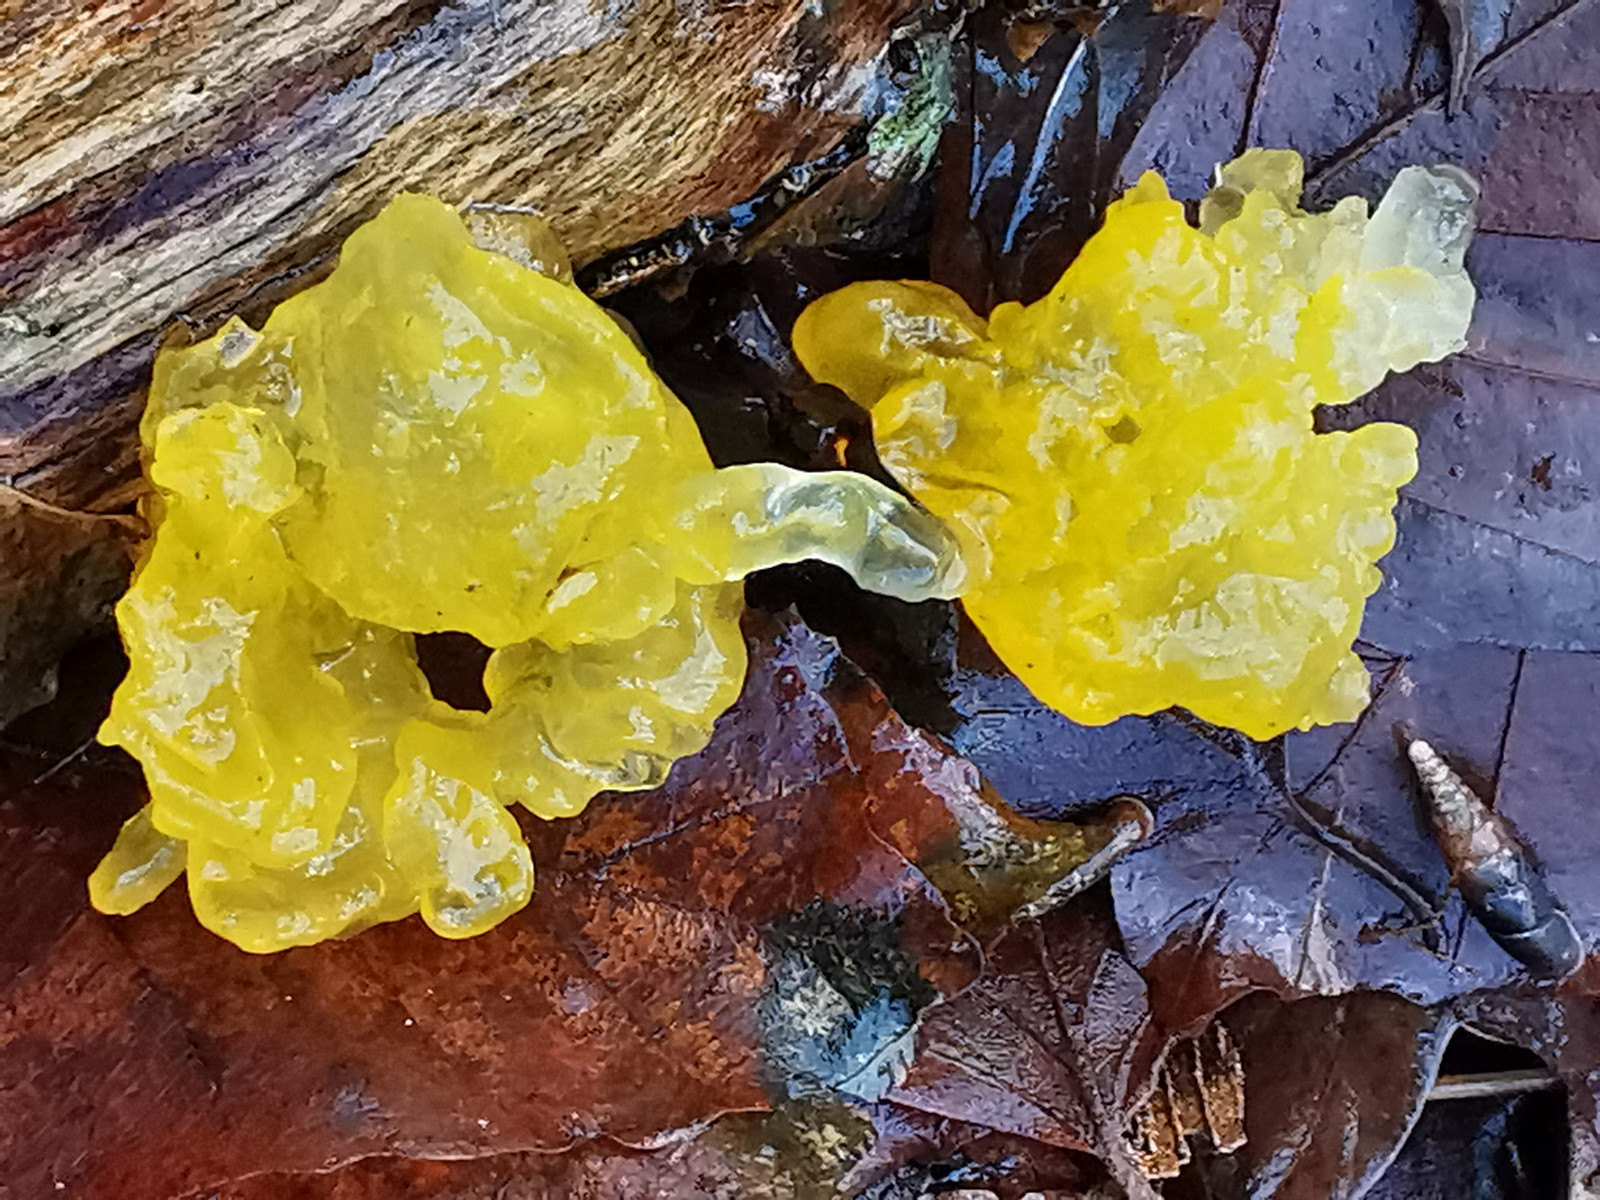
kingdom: Fungi
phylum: Basidiomycota
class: Tremellomycetes
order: Tremellales
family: Tremellaceae
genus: Tremella
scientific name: Tremella mesenterica
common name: gul bævresvamp
